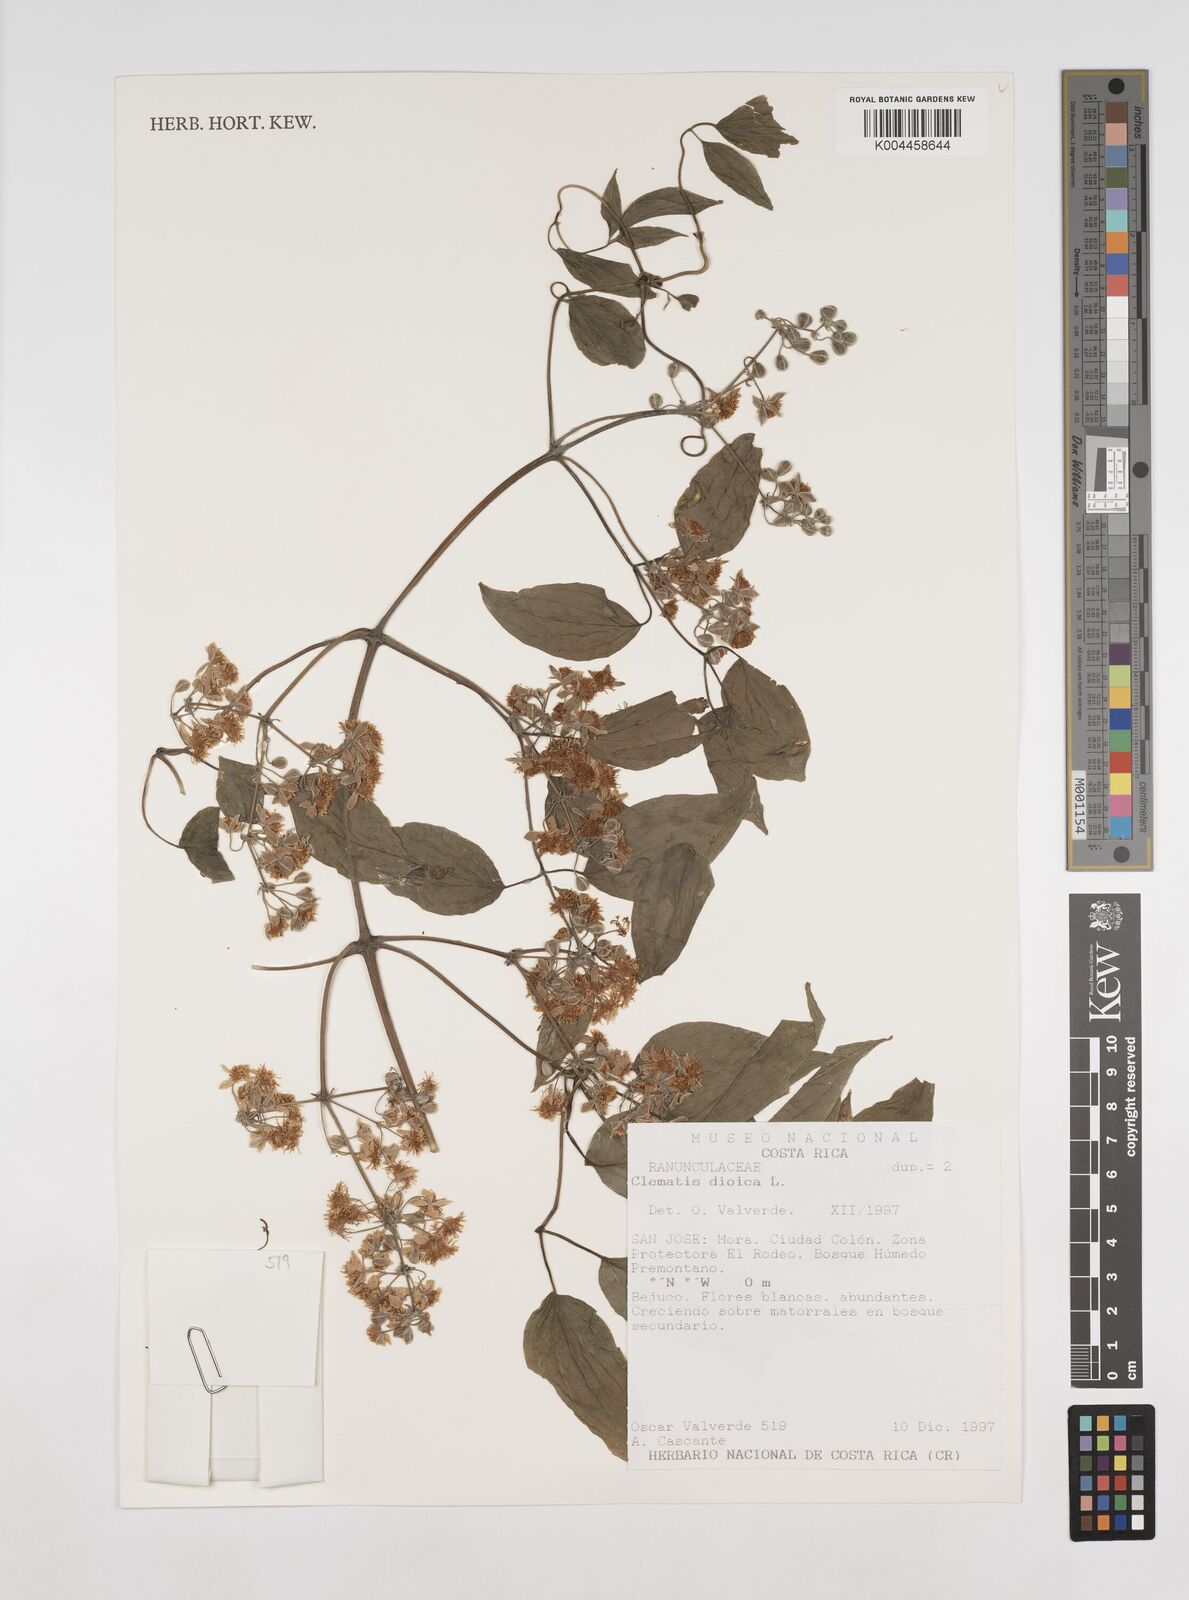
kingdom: Plantae
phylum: Tracheophyta
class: Magnoliopsida
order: Ranunculales
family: Ranunculaceae
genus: Clematis
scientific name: Clematis dioica
